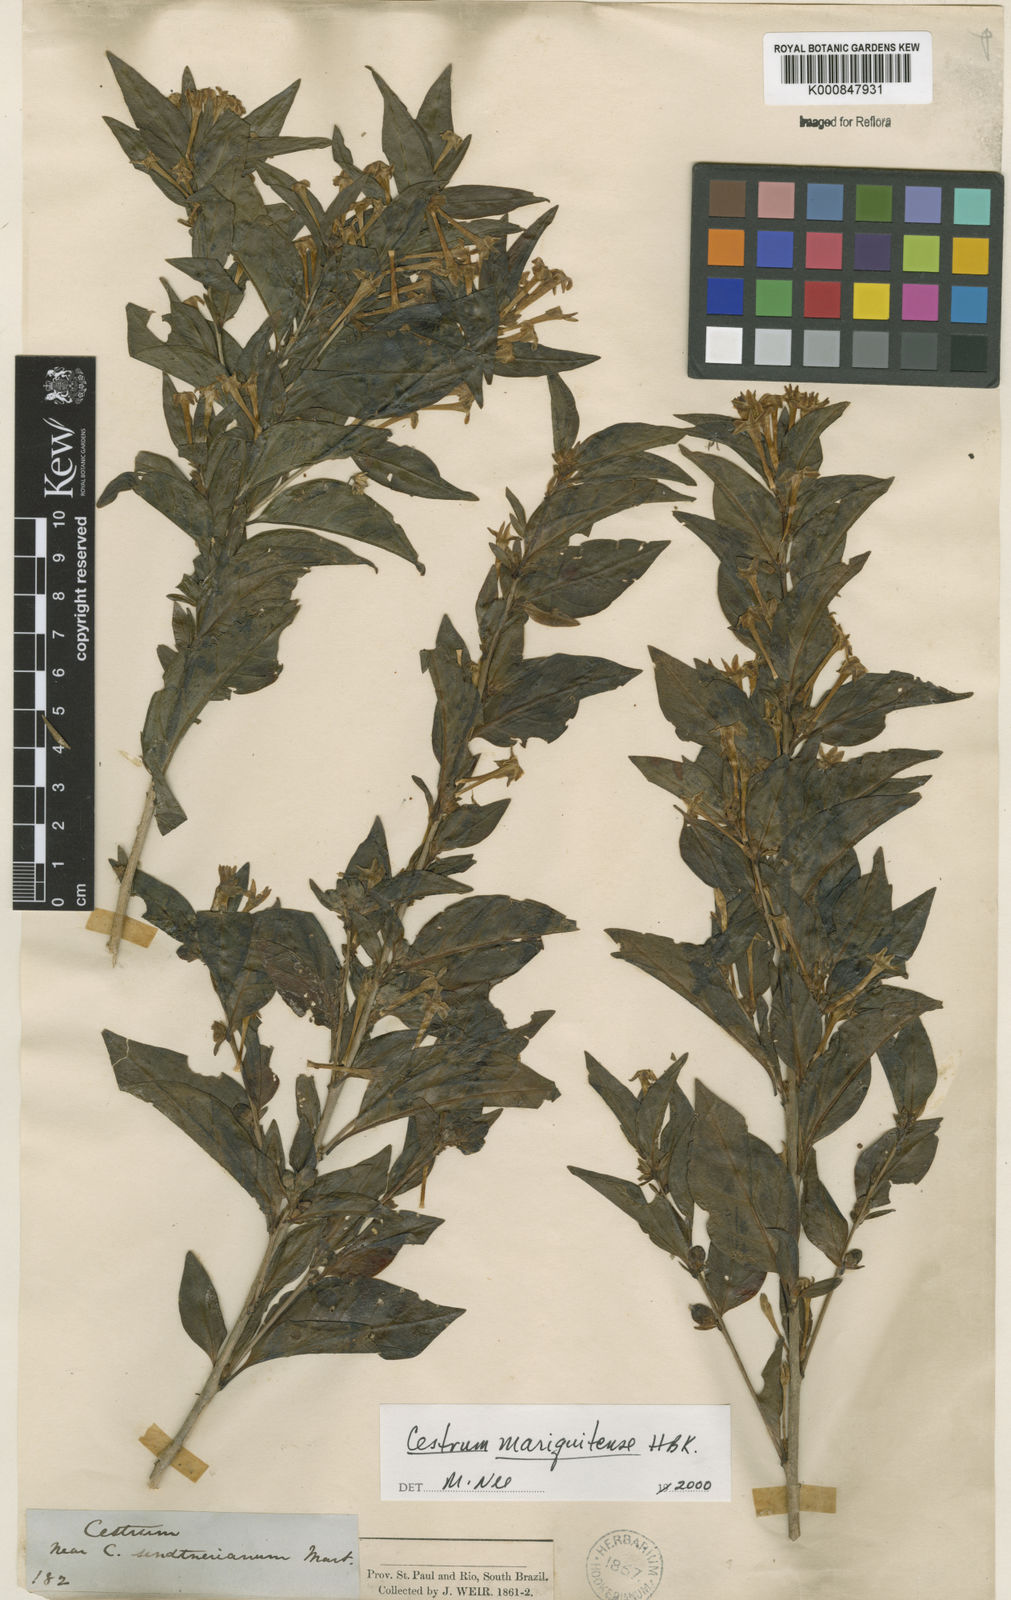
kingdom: Plantae
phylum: Tracheophyta
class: Magnoliopsida
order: Solanales
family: Solanaceae
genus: Cestrum
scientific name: Cestrum mariquitense
